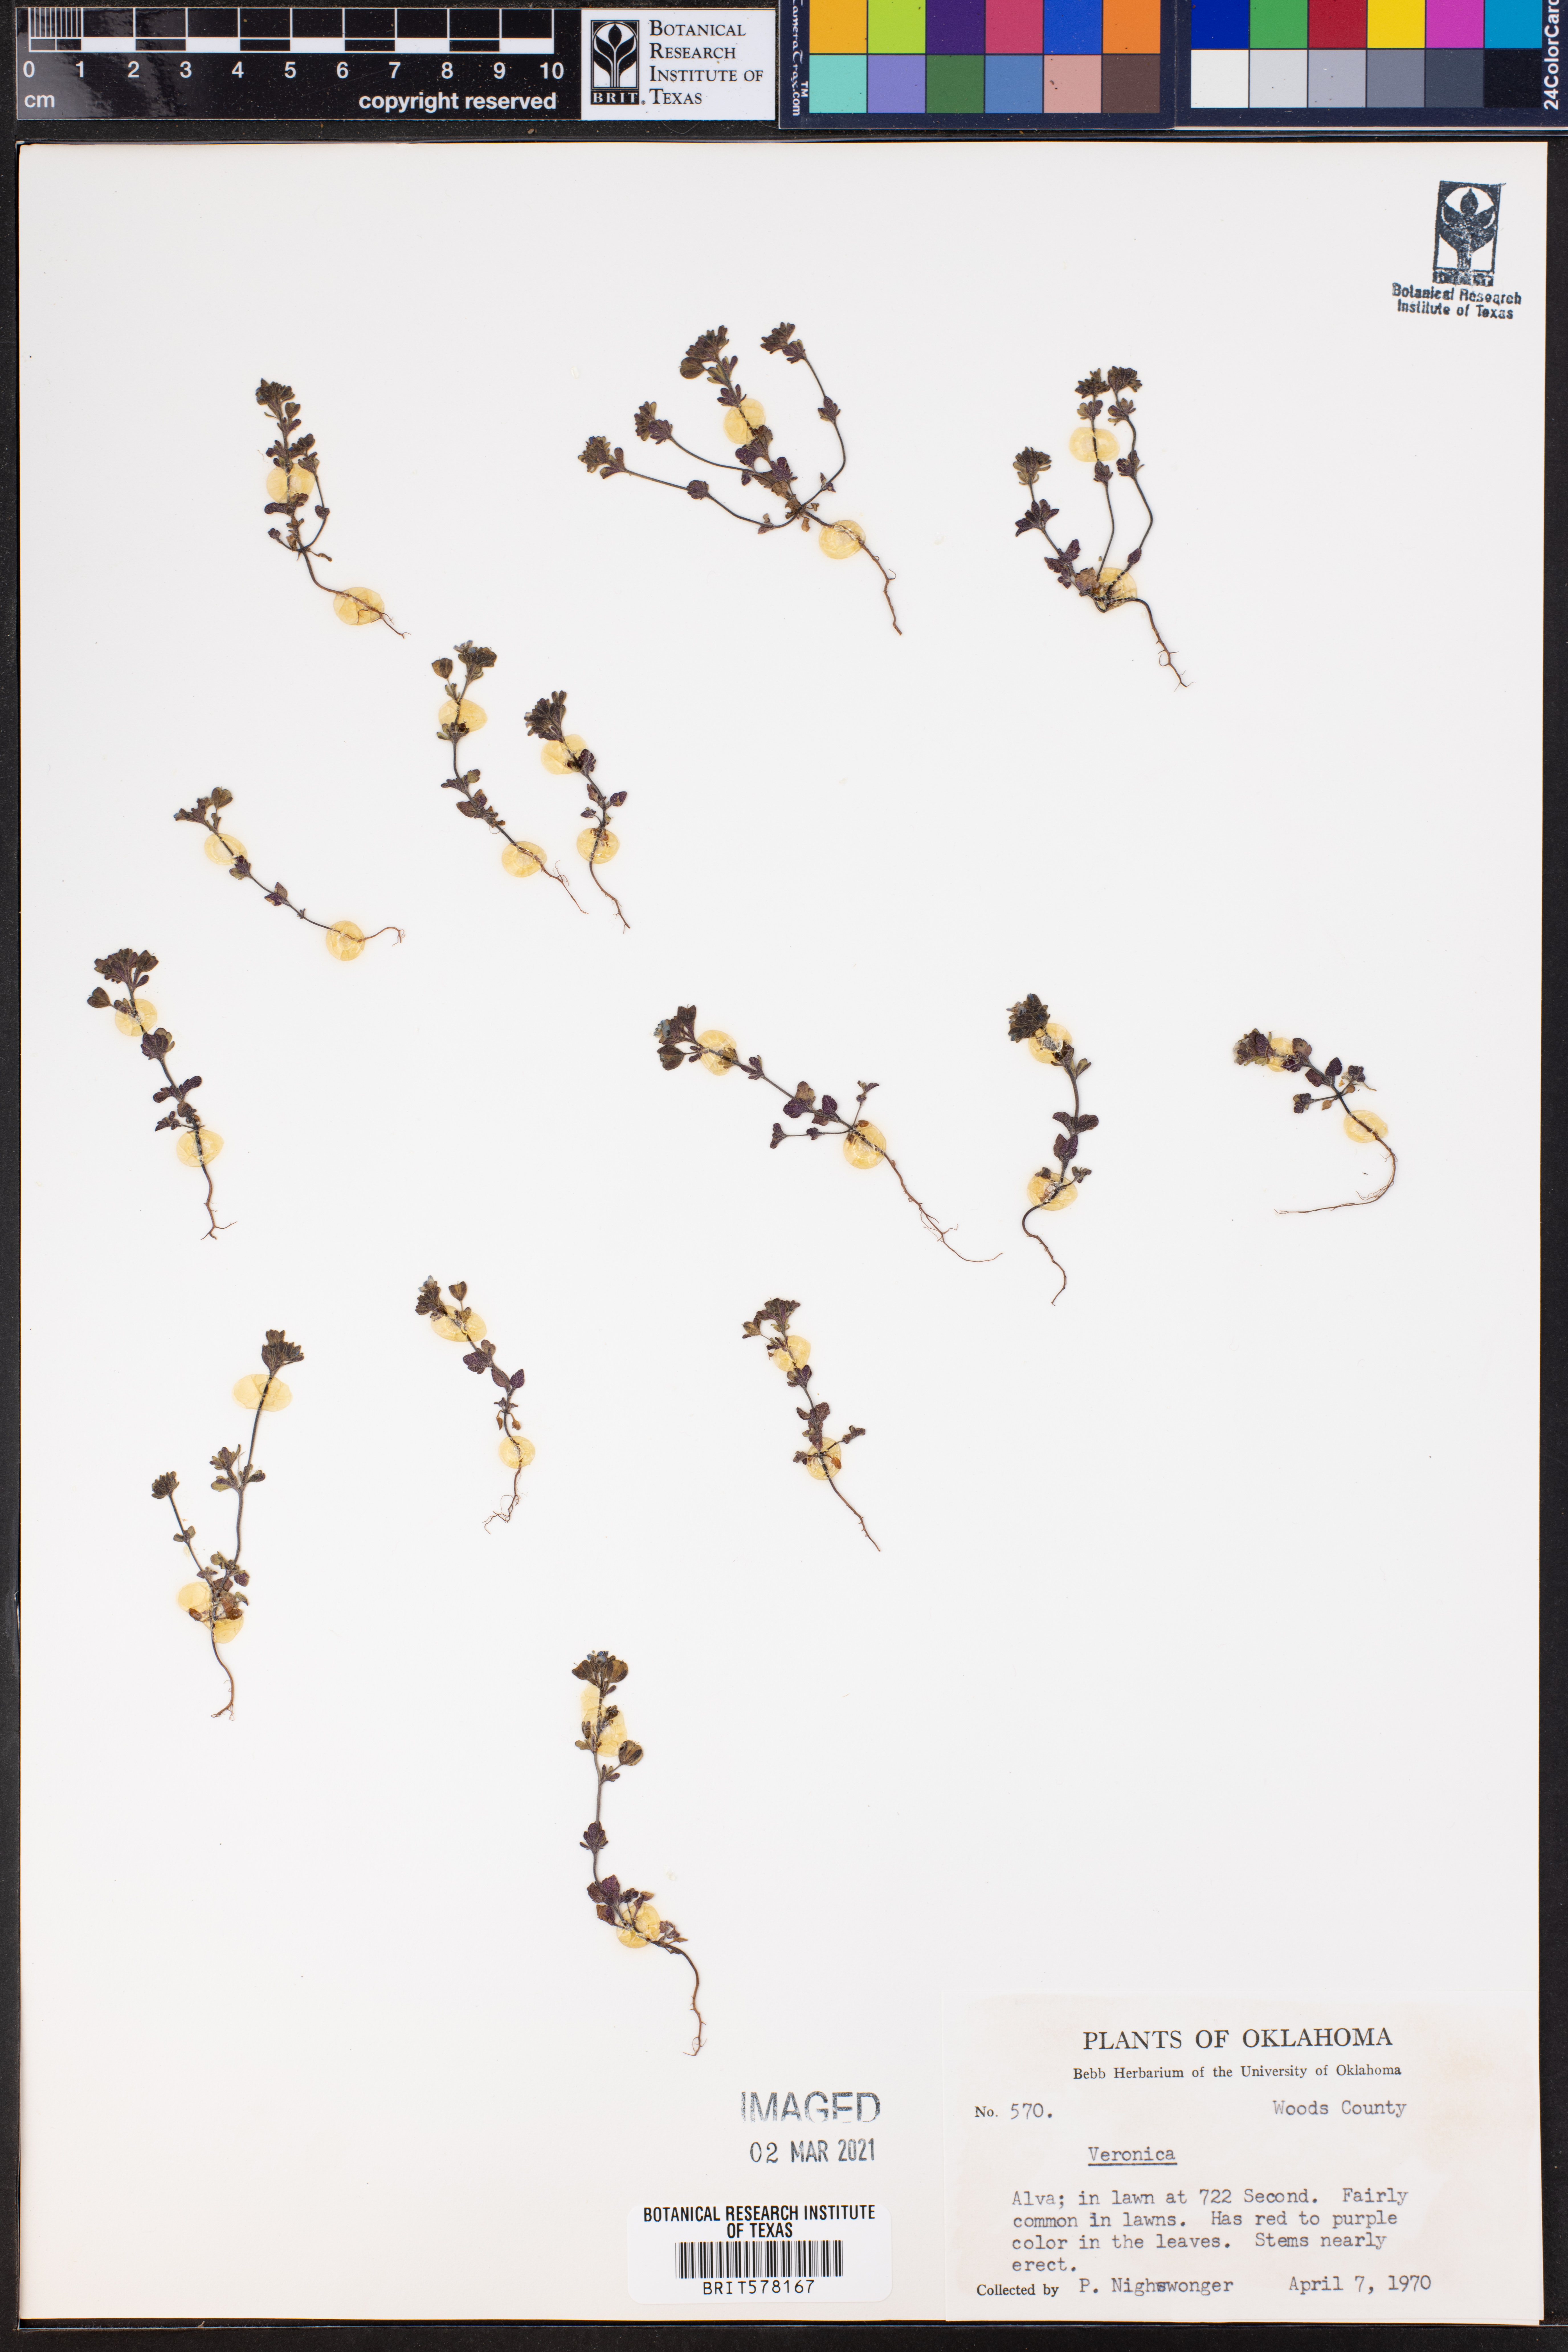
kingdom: Plantae
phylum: Tracheophyta
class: Magnoliopsida
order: Lamiales
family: Plantaginaceae
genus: Veronica
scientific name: Veronica
